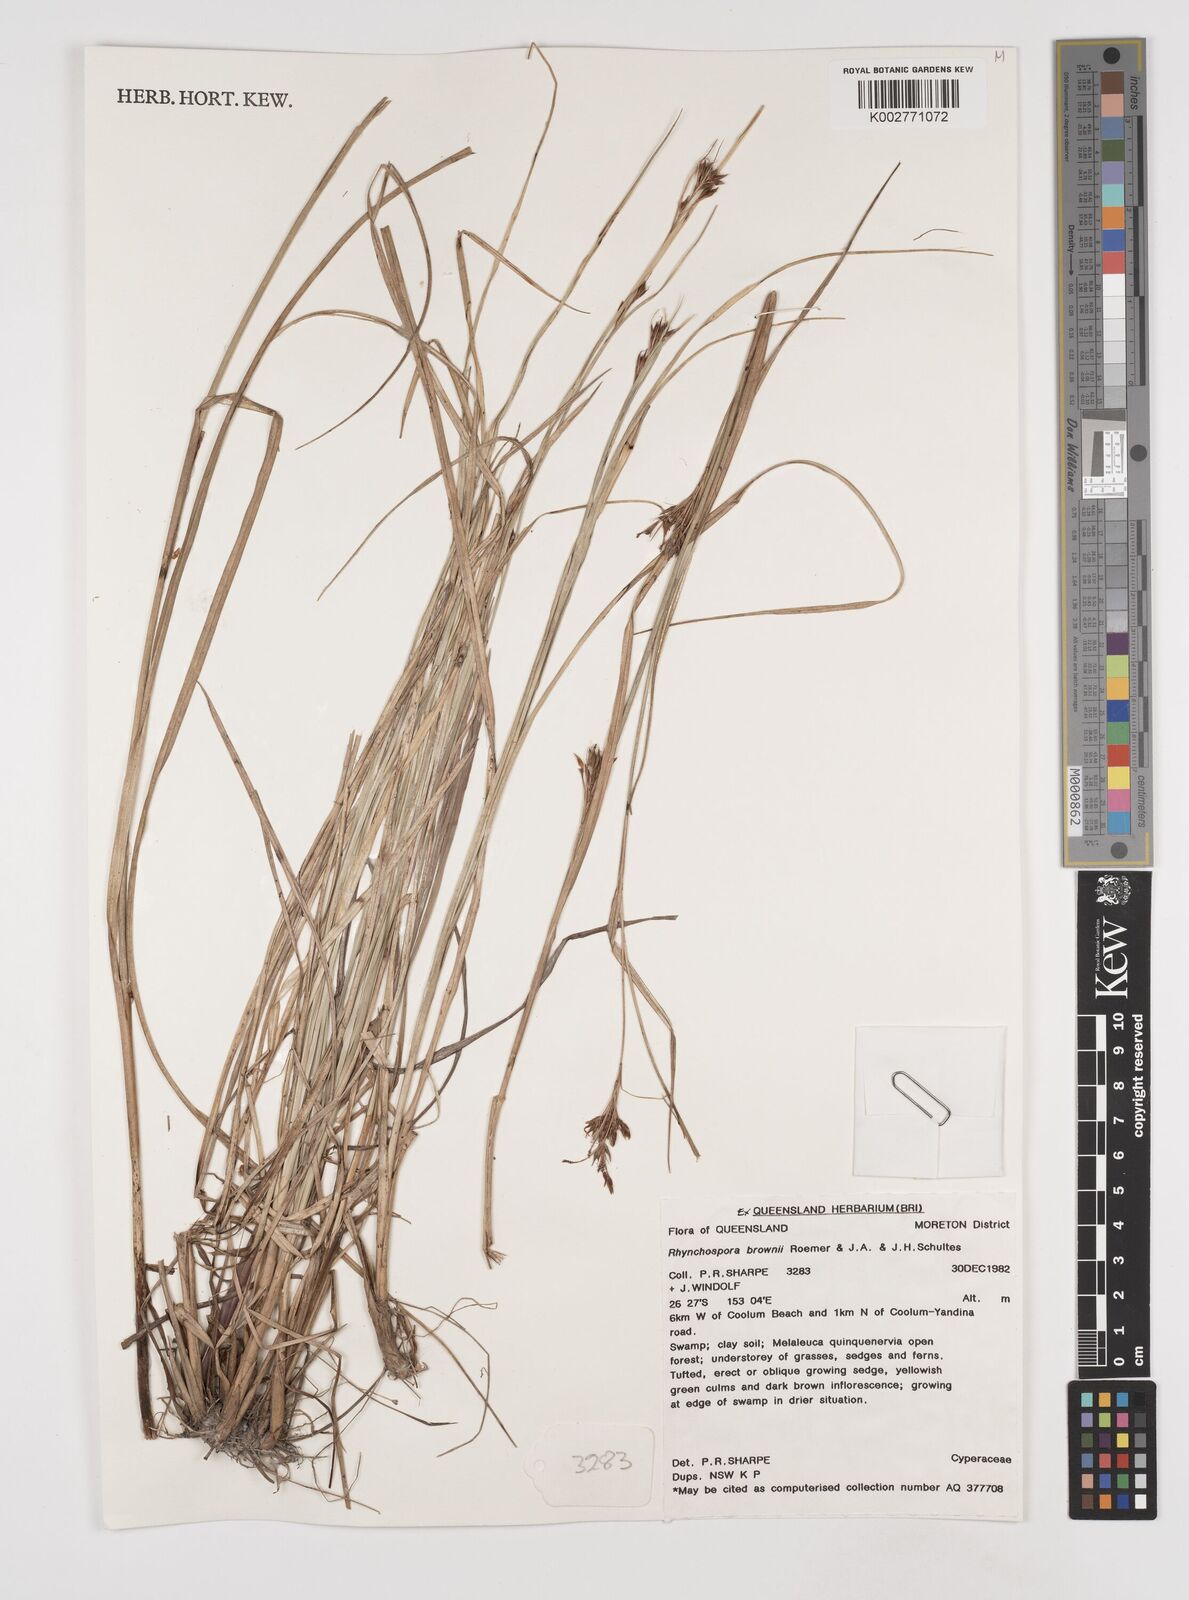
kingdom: Plantae
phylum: Tracheophyta
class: Liliopsida
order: Poales
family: Cyperaceae
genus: Rhynchospora
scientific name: Rhynchospora rugosa
